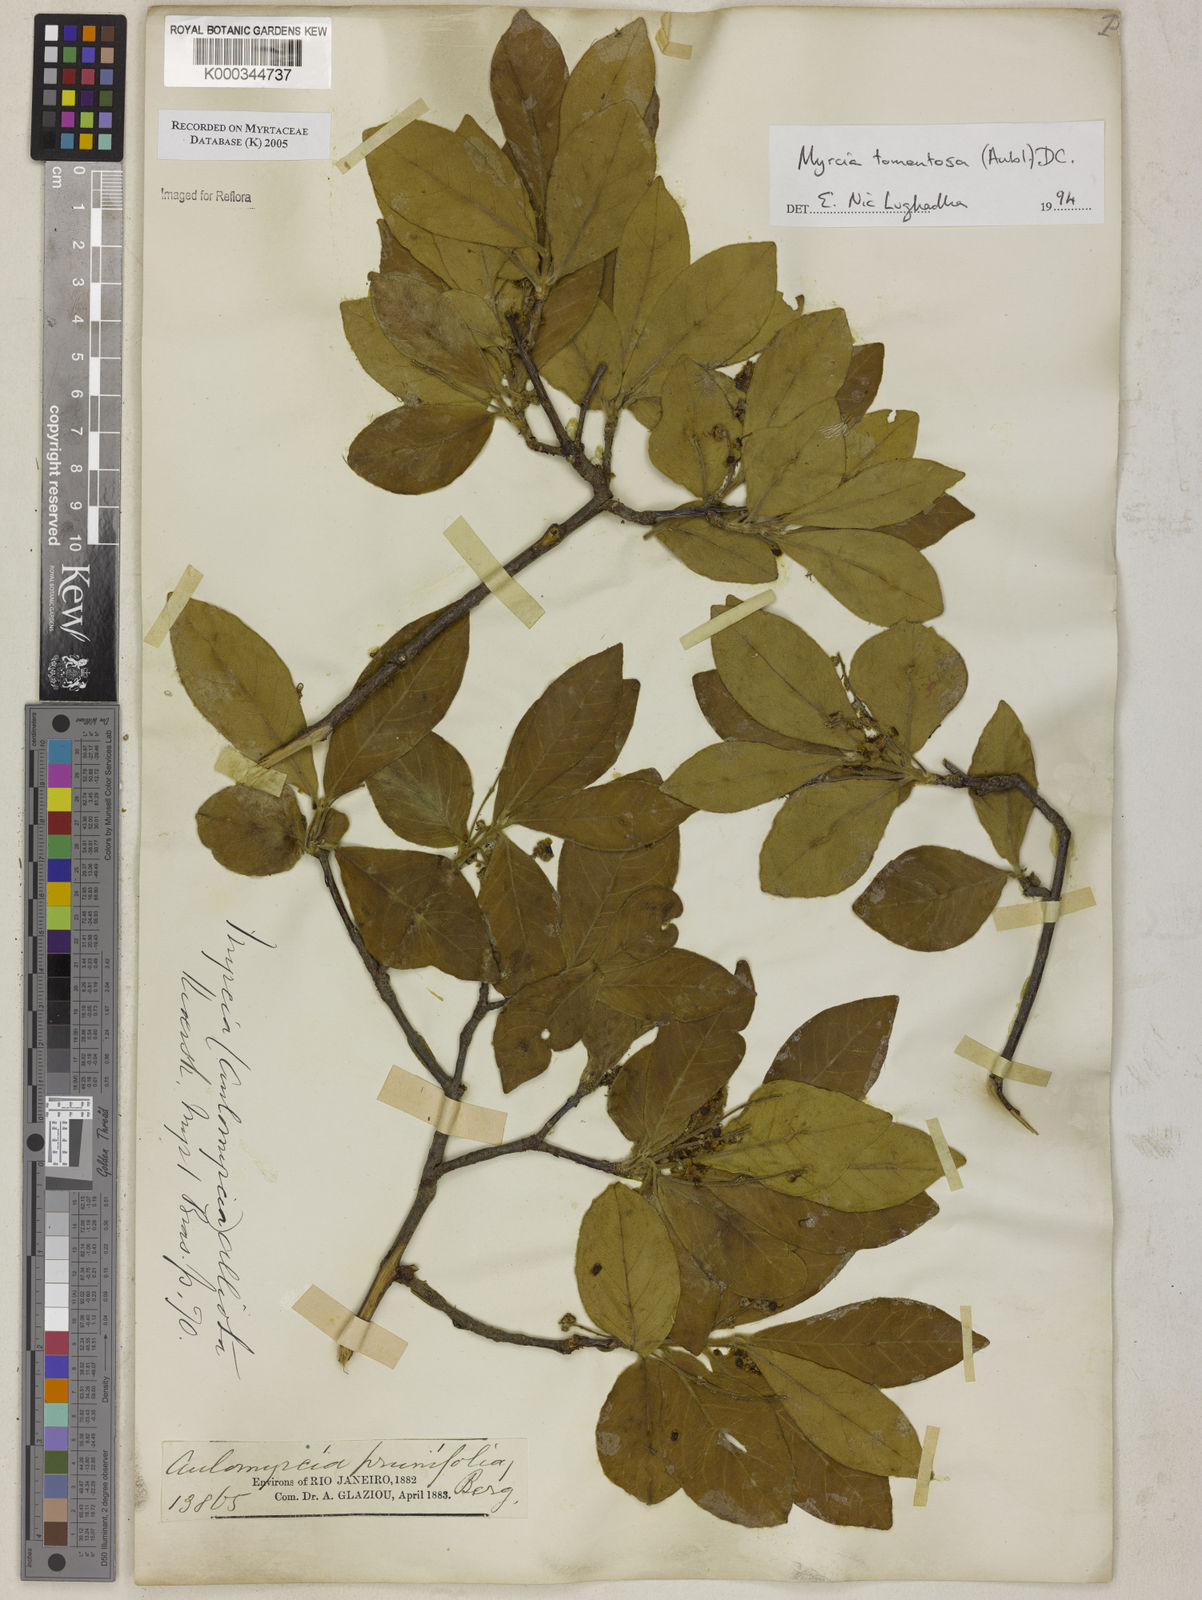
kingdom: Plantae
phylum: Tracheophyta
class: Magnoliopsida
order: Myrtales
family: Myrtaceae
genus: Myrcia
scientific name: Myrcia tomentosa
